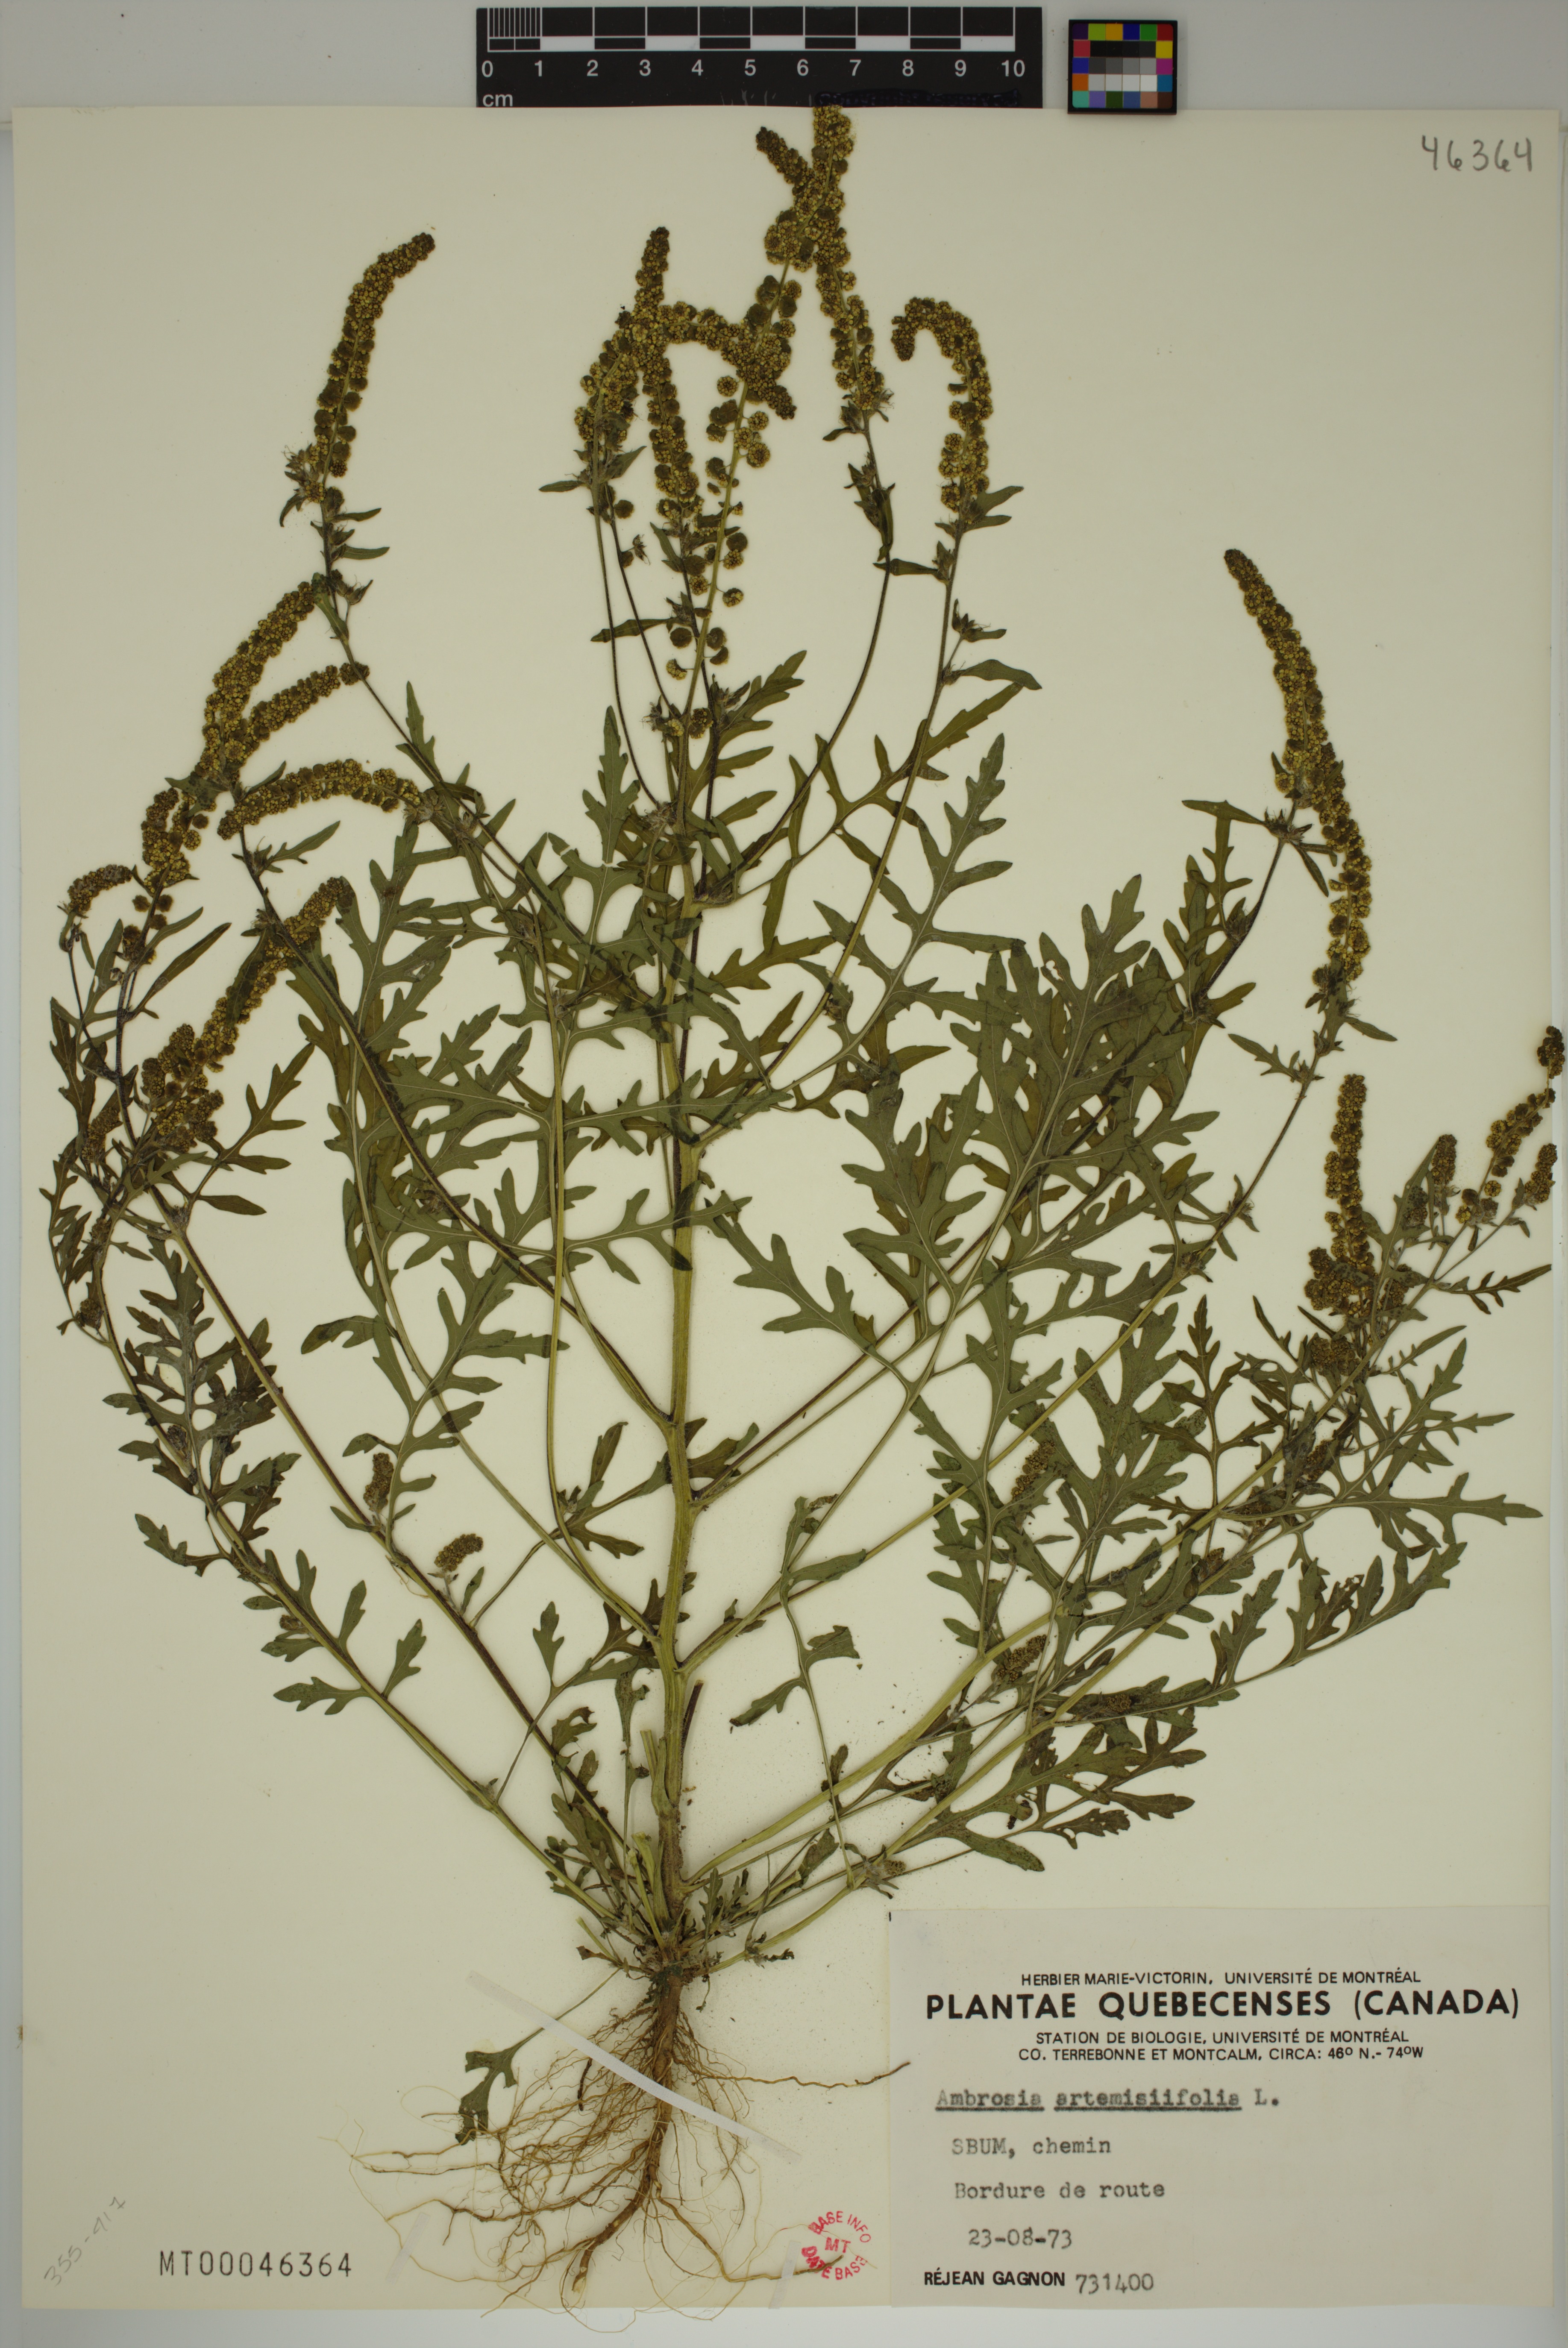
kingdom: Plantae
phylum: Tracheophyta
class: Magnoliopsida
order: Asterales
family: Asteraceae
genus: Ambrosia
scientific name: Ambrosia artemisiifolia
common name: Annual ragweed
